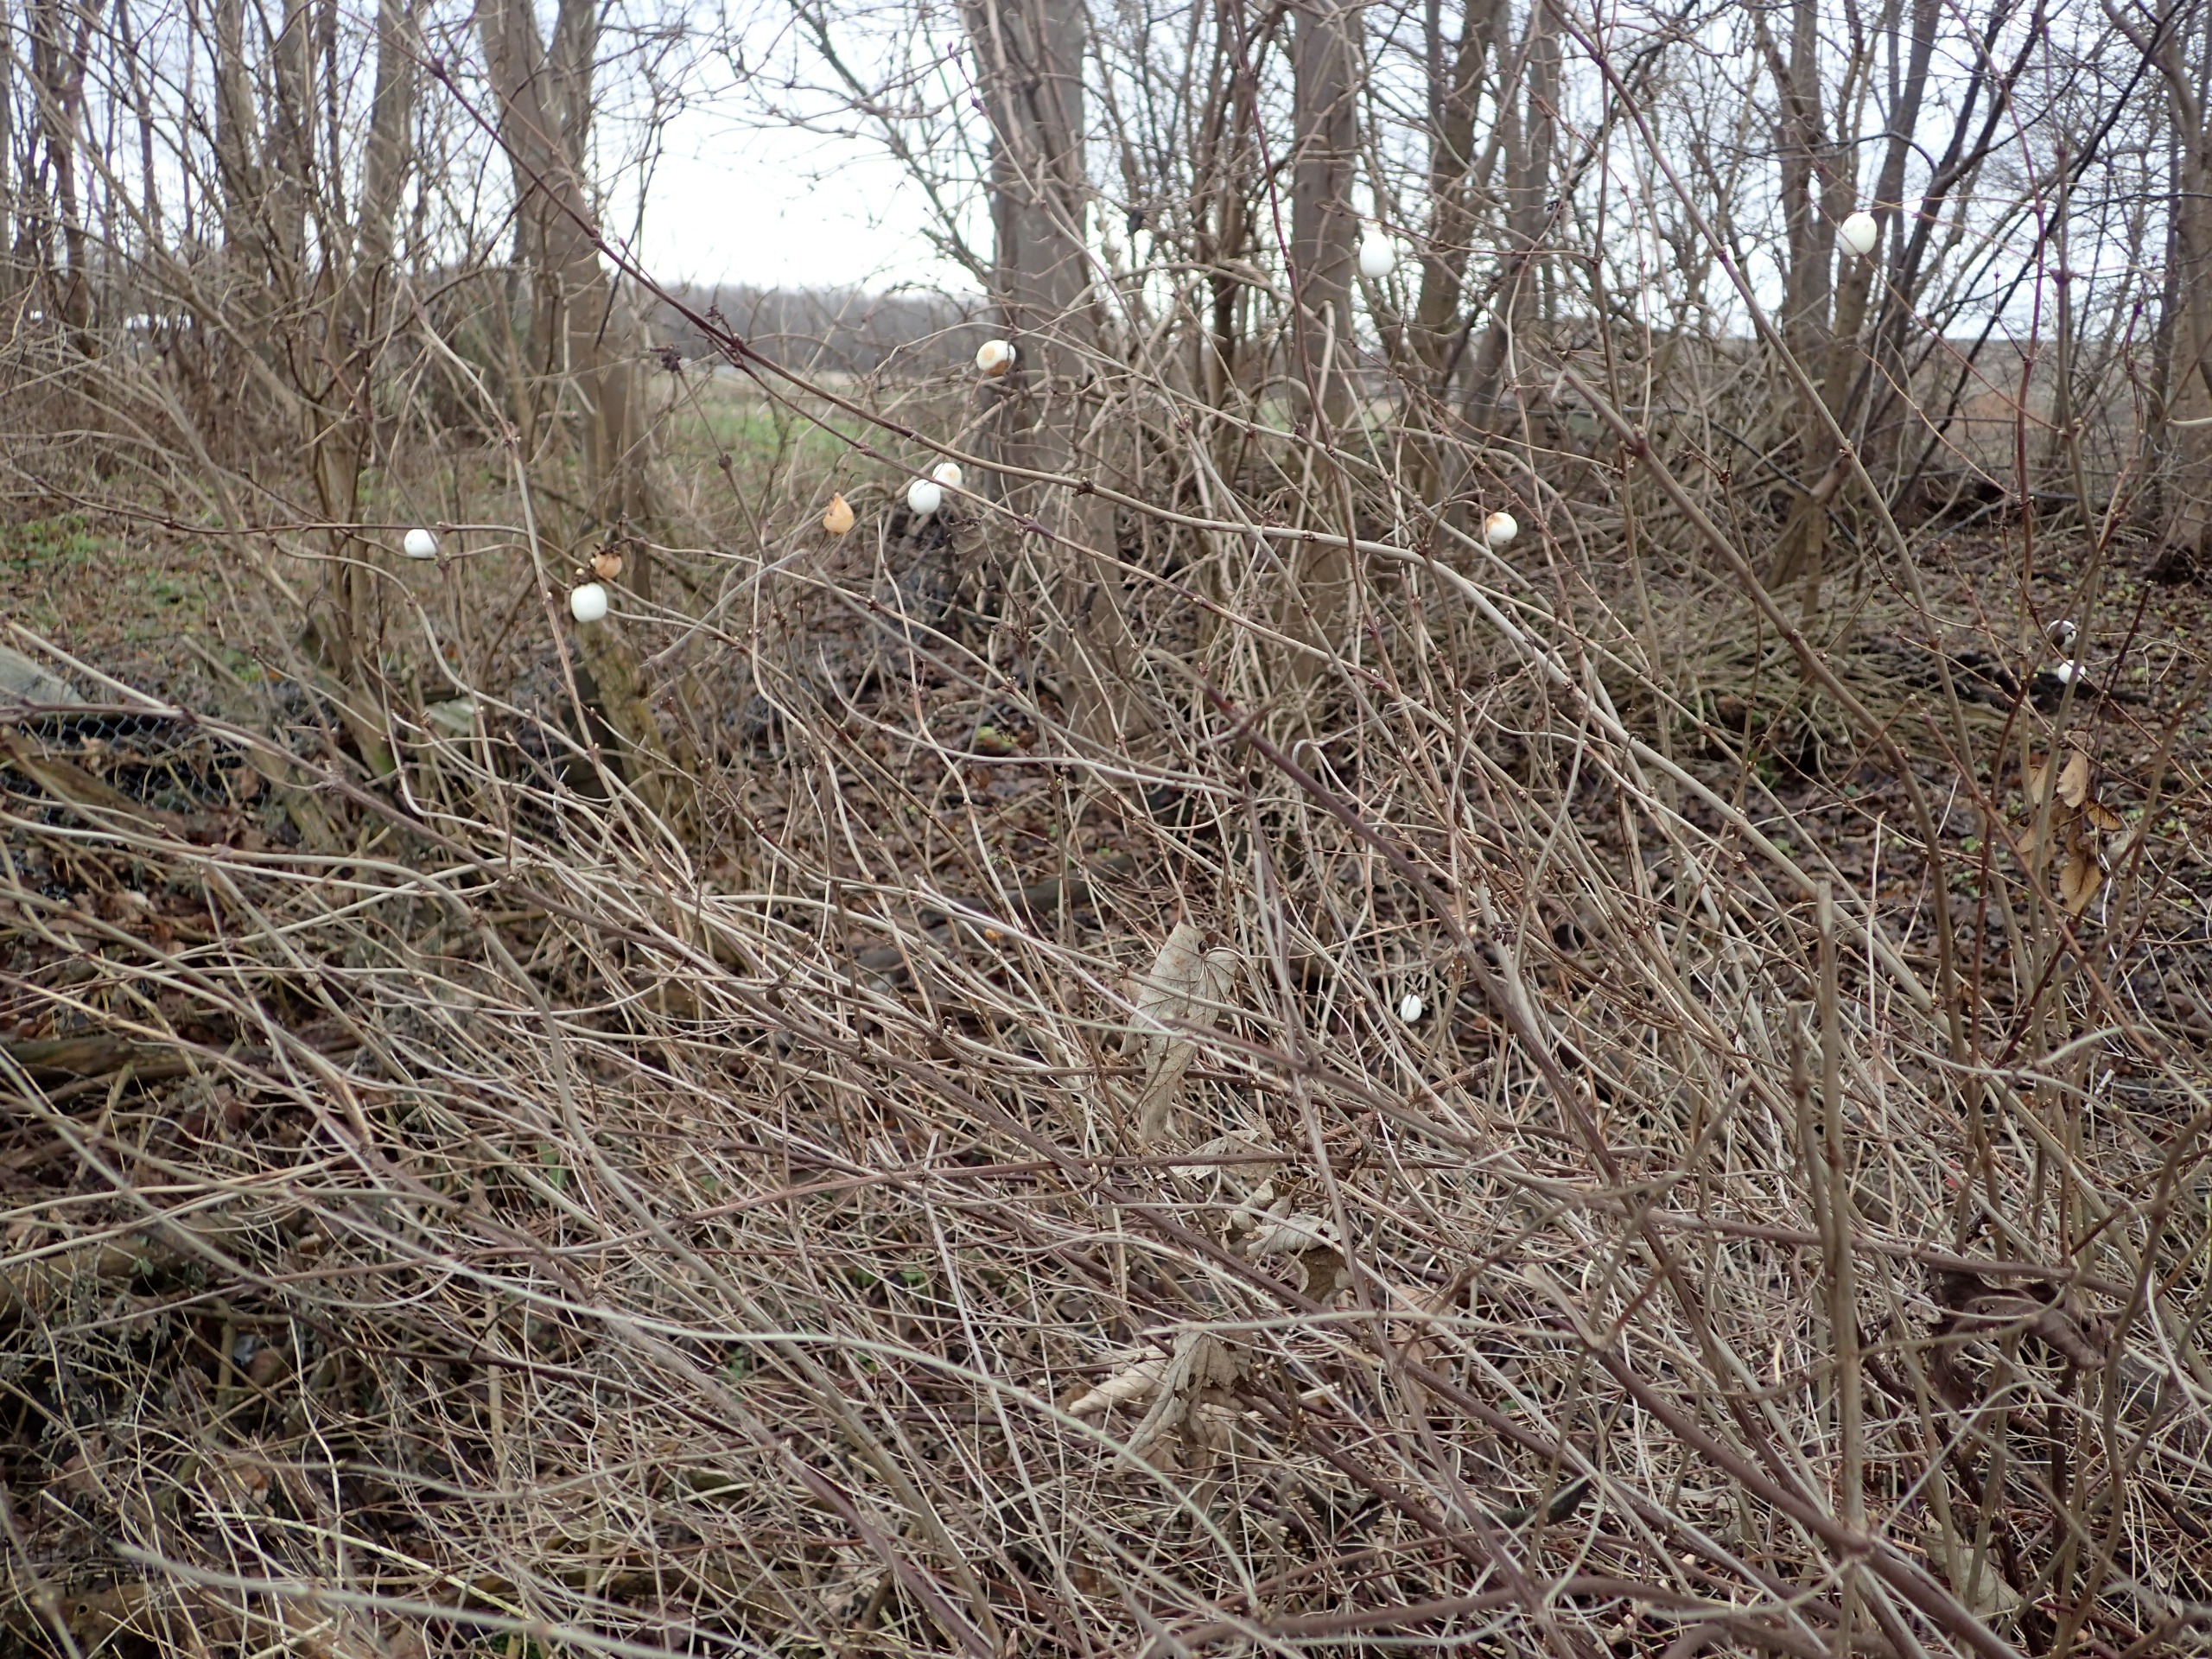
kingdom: Plantae
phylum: Tracheophyta
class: Magnoliopsida
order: Dipsacales
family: Caprifoliaceae
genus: Symphoricarpos
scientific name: Symphoricarpos albus
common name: Almindelig snebær
